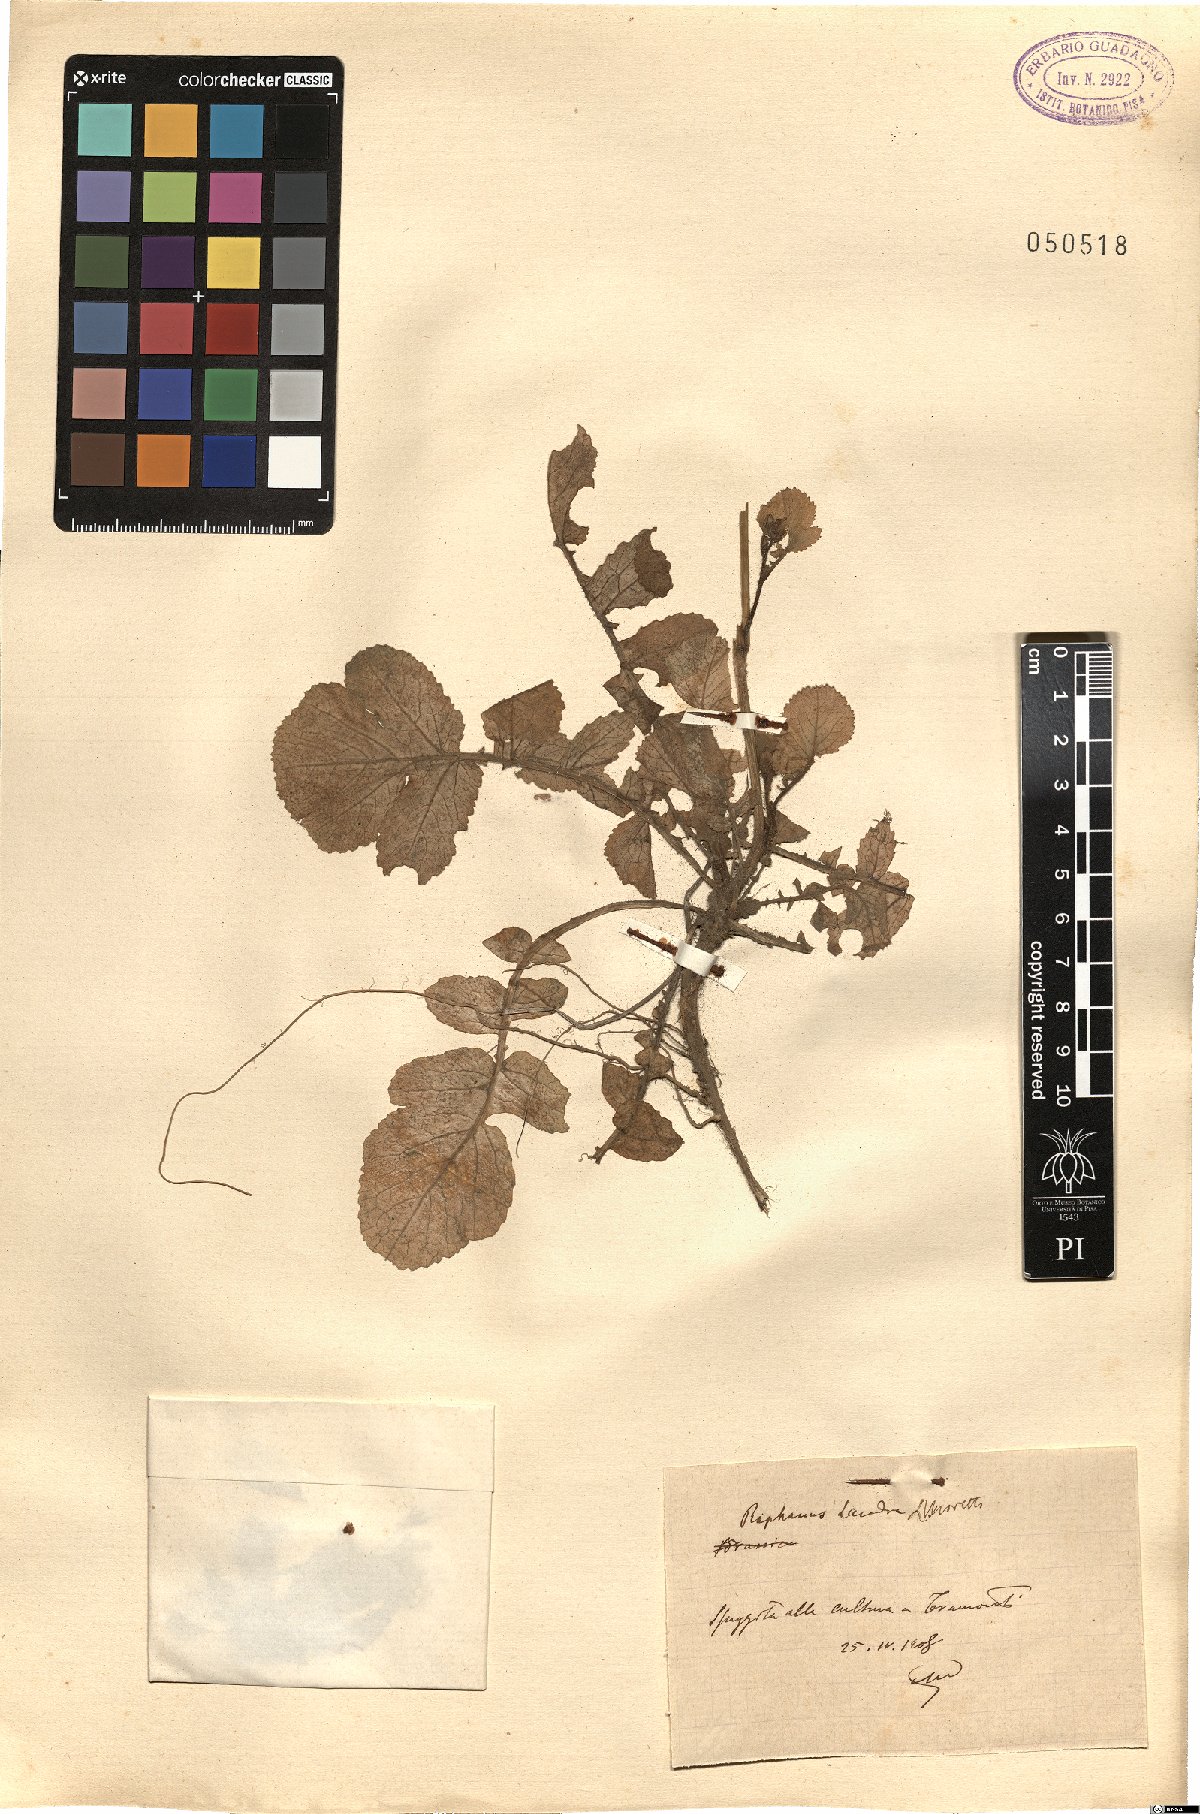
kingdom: Plantae
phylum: Tracheophyta
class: Magnoliopsida
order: Brassicales
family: Brassicaceae
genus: Raphanus
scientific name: Raphanus raphanistrum
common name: Wild radish
